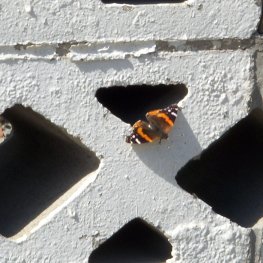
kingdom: Animalia
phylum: Arthropoda
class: Insecta
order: Lepidoptera
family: Nymphalidae
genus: Vanessa
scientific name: Vanessa atalanta
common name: Red Admiral
